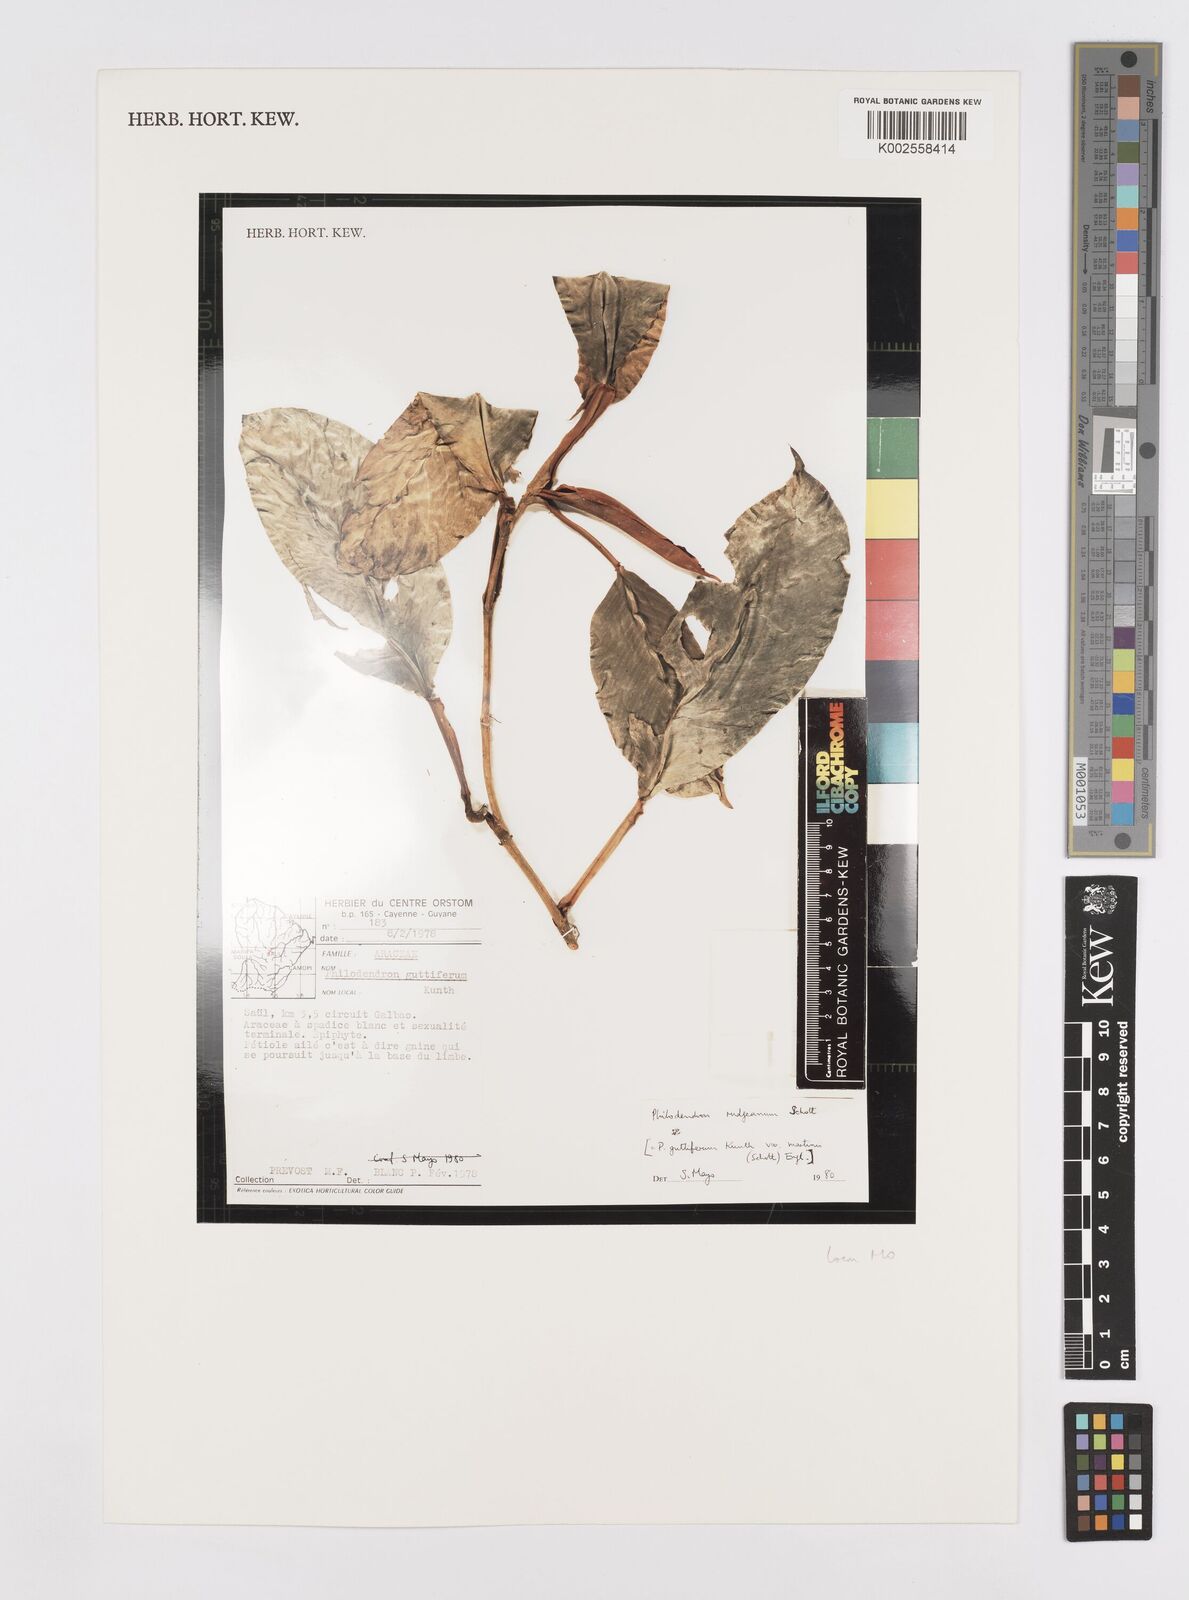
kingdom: Plantae
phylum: Tracheophyta
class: Liliopsida
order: Alismatales
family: Araceae
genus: Philodendron
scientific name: Philodendron rudgeanum
